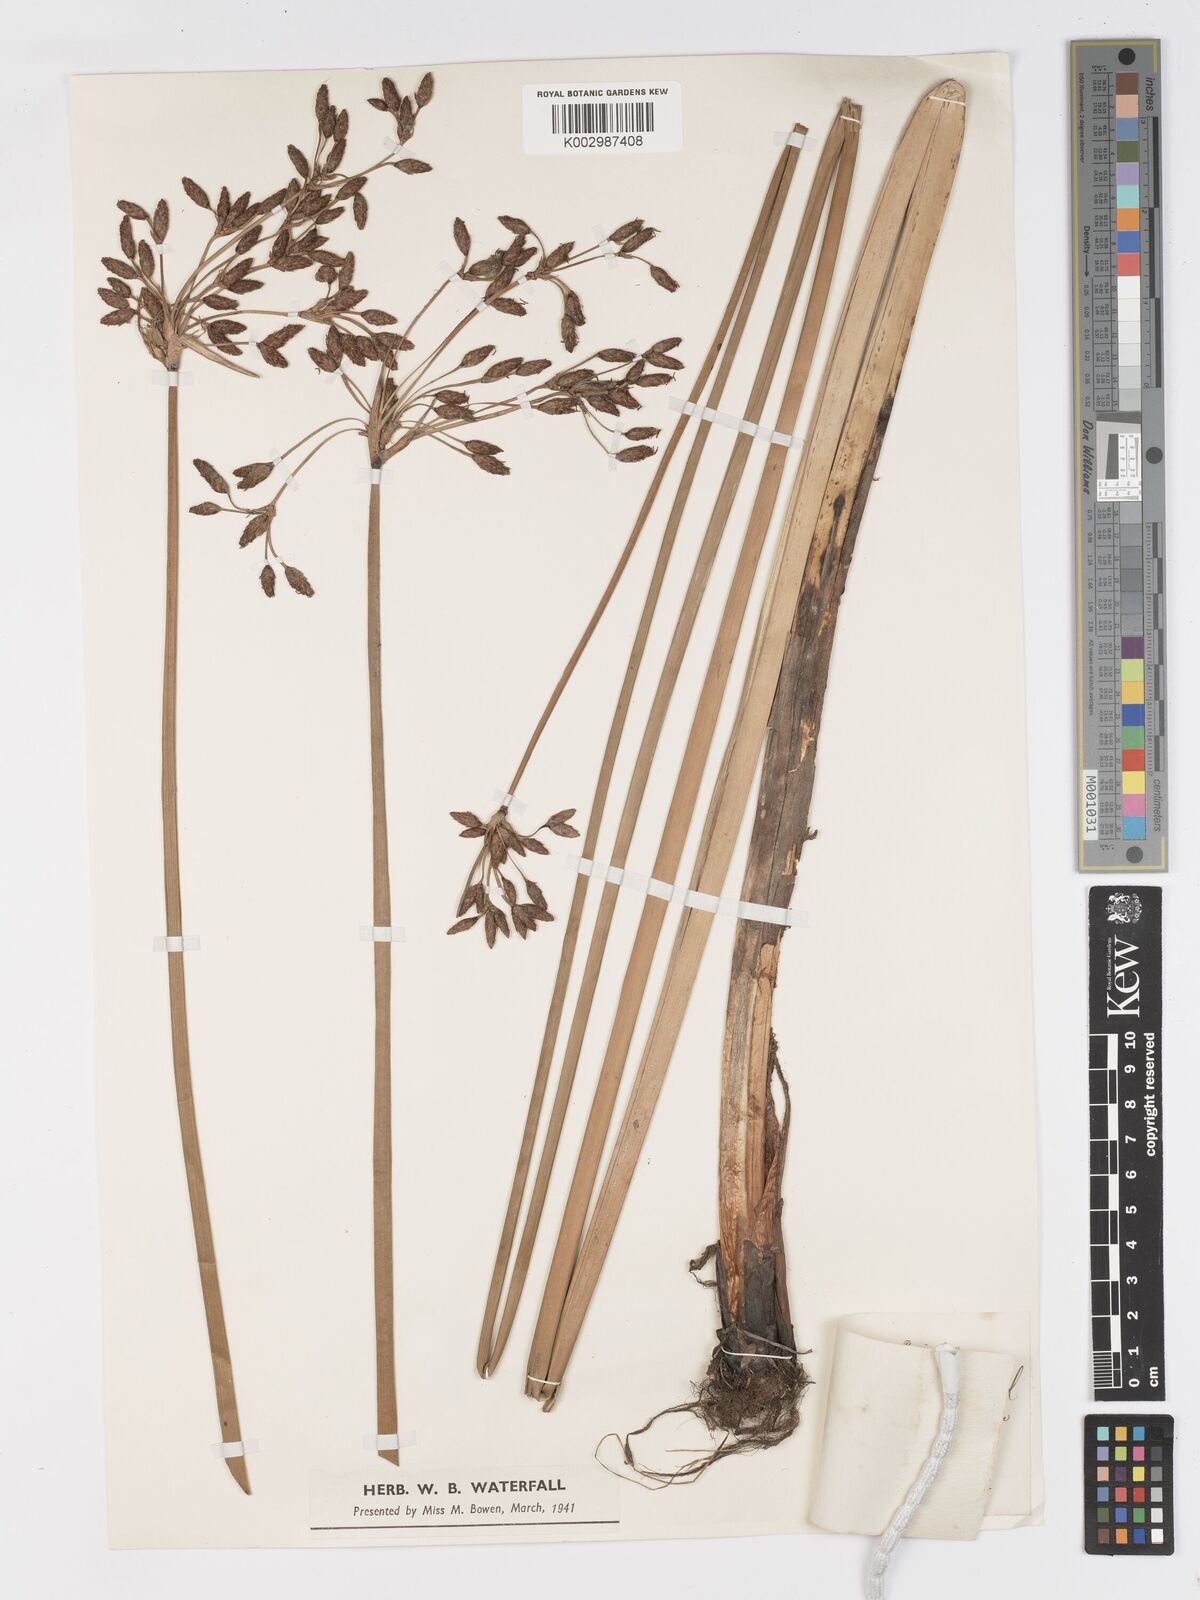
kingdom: Plantae
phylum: Tracheophyta
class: Liliopsida
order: Poales
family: Cyperaceae
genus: Schoenoplectus
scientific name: Schoenoplectus lacustris
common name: Common club-rush
